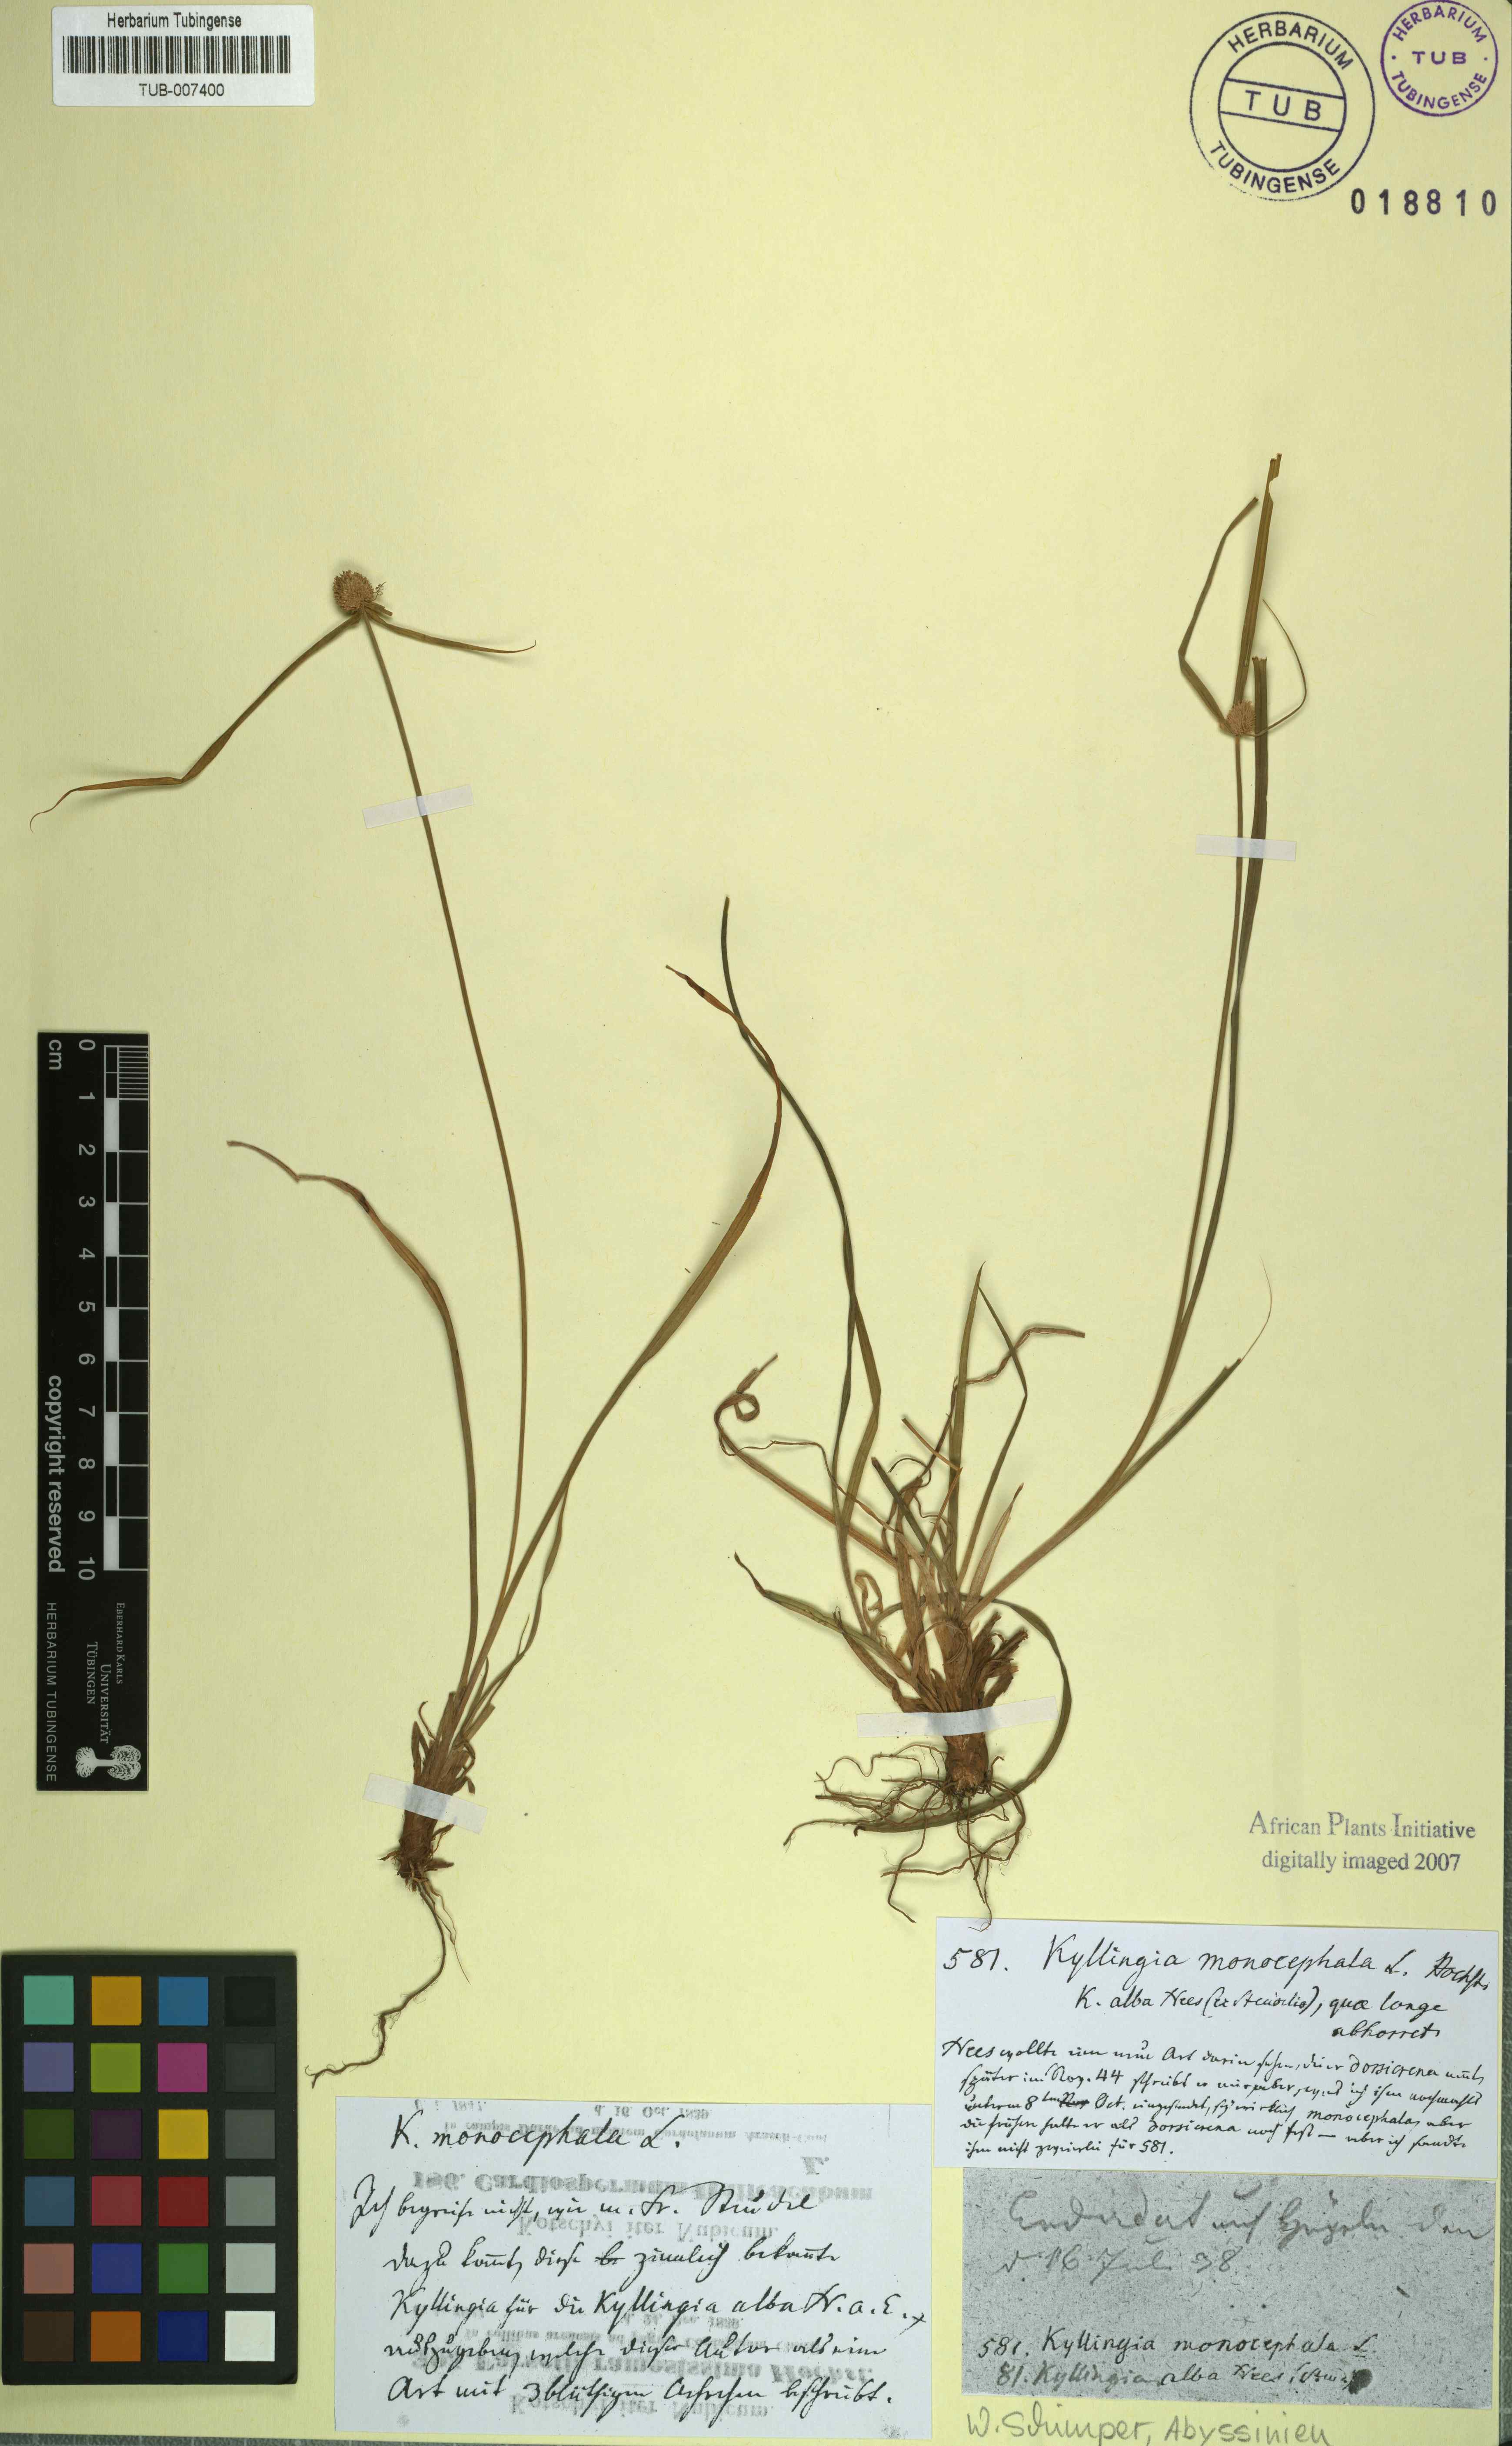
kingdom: Plantae
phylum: Tracheophyta
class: Liliopsida
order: Poales
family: Cyperaceae
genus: Cyperus
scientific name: Cyperus brevifolius
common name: Globe kyllinga
